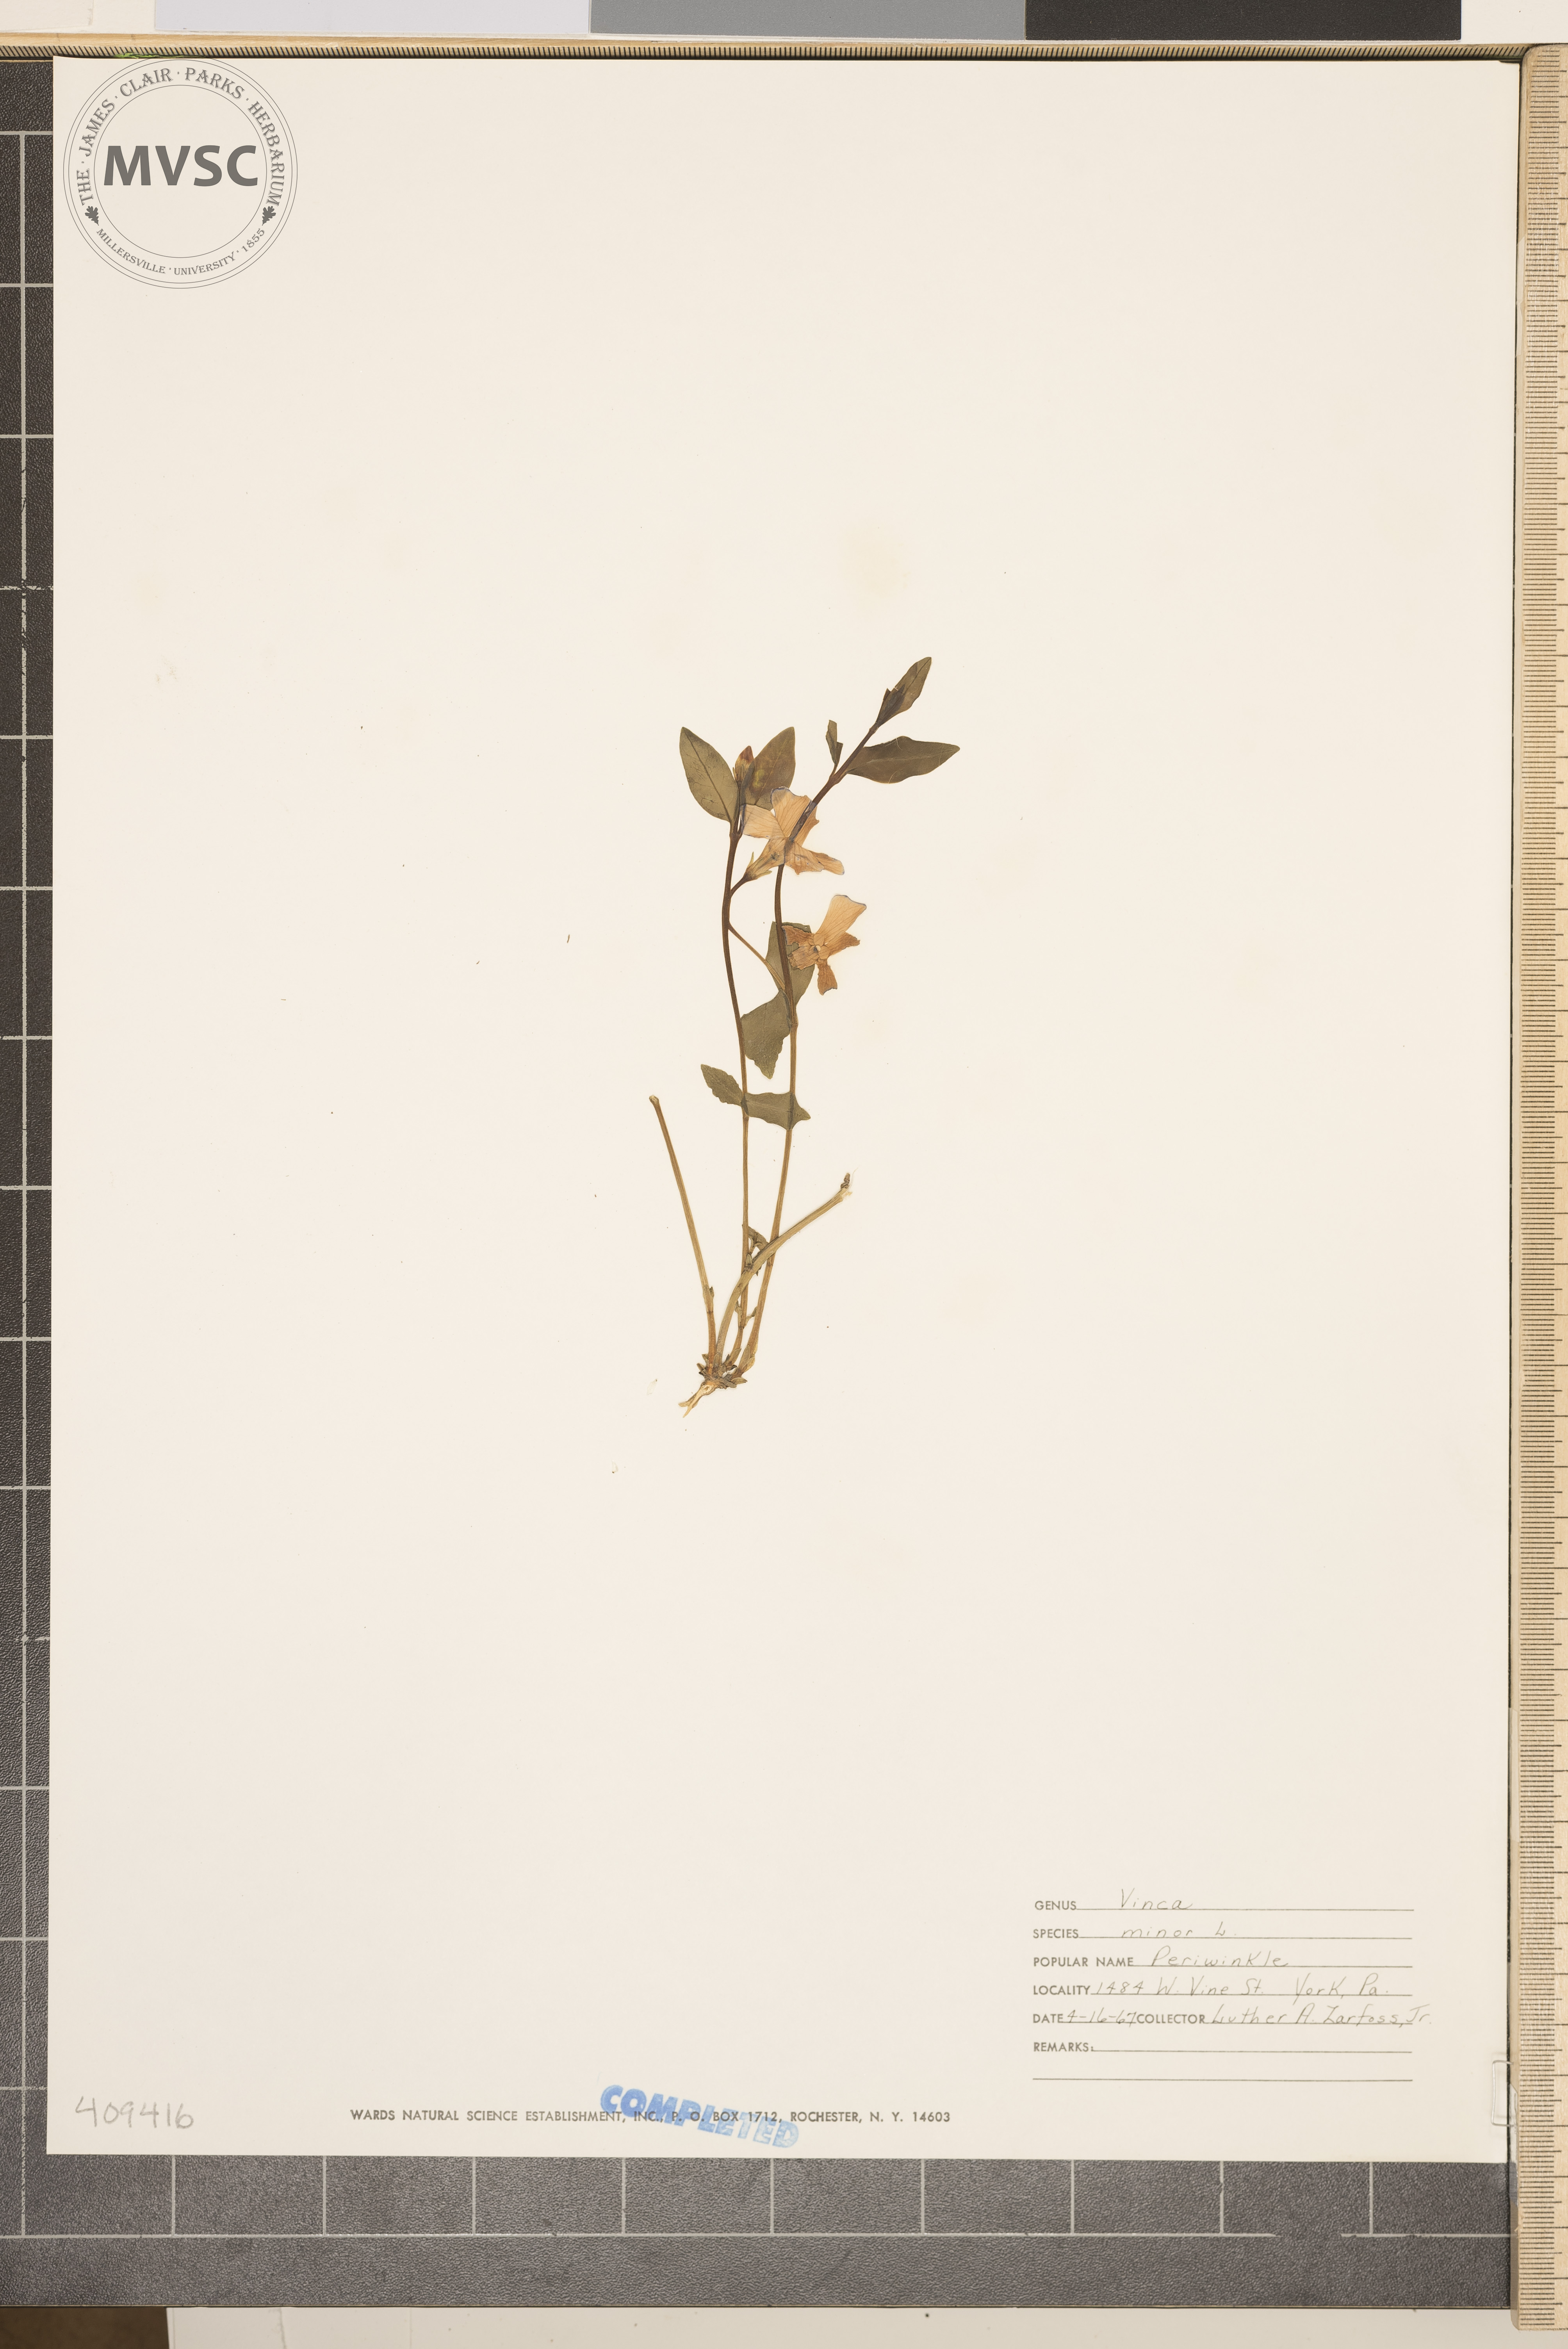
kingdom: Plantae
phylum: Tracheophyta
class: Magnoliopsida
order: Gentianales
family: Apocynaceae
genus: Vinca
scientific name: Vinca minor
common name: Lesser periwinkle
